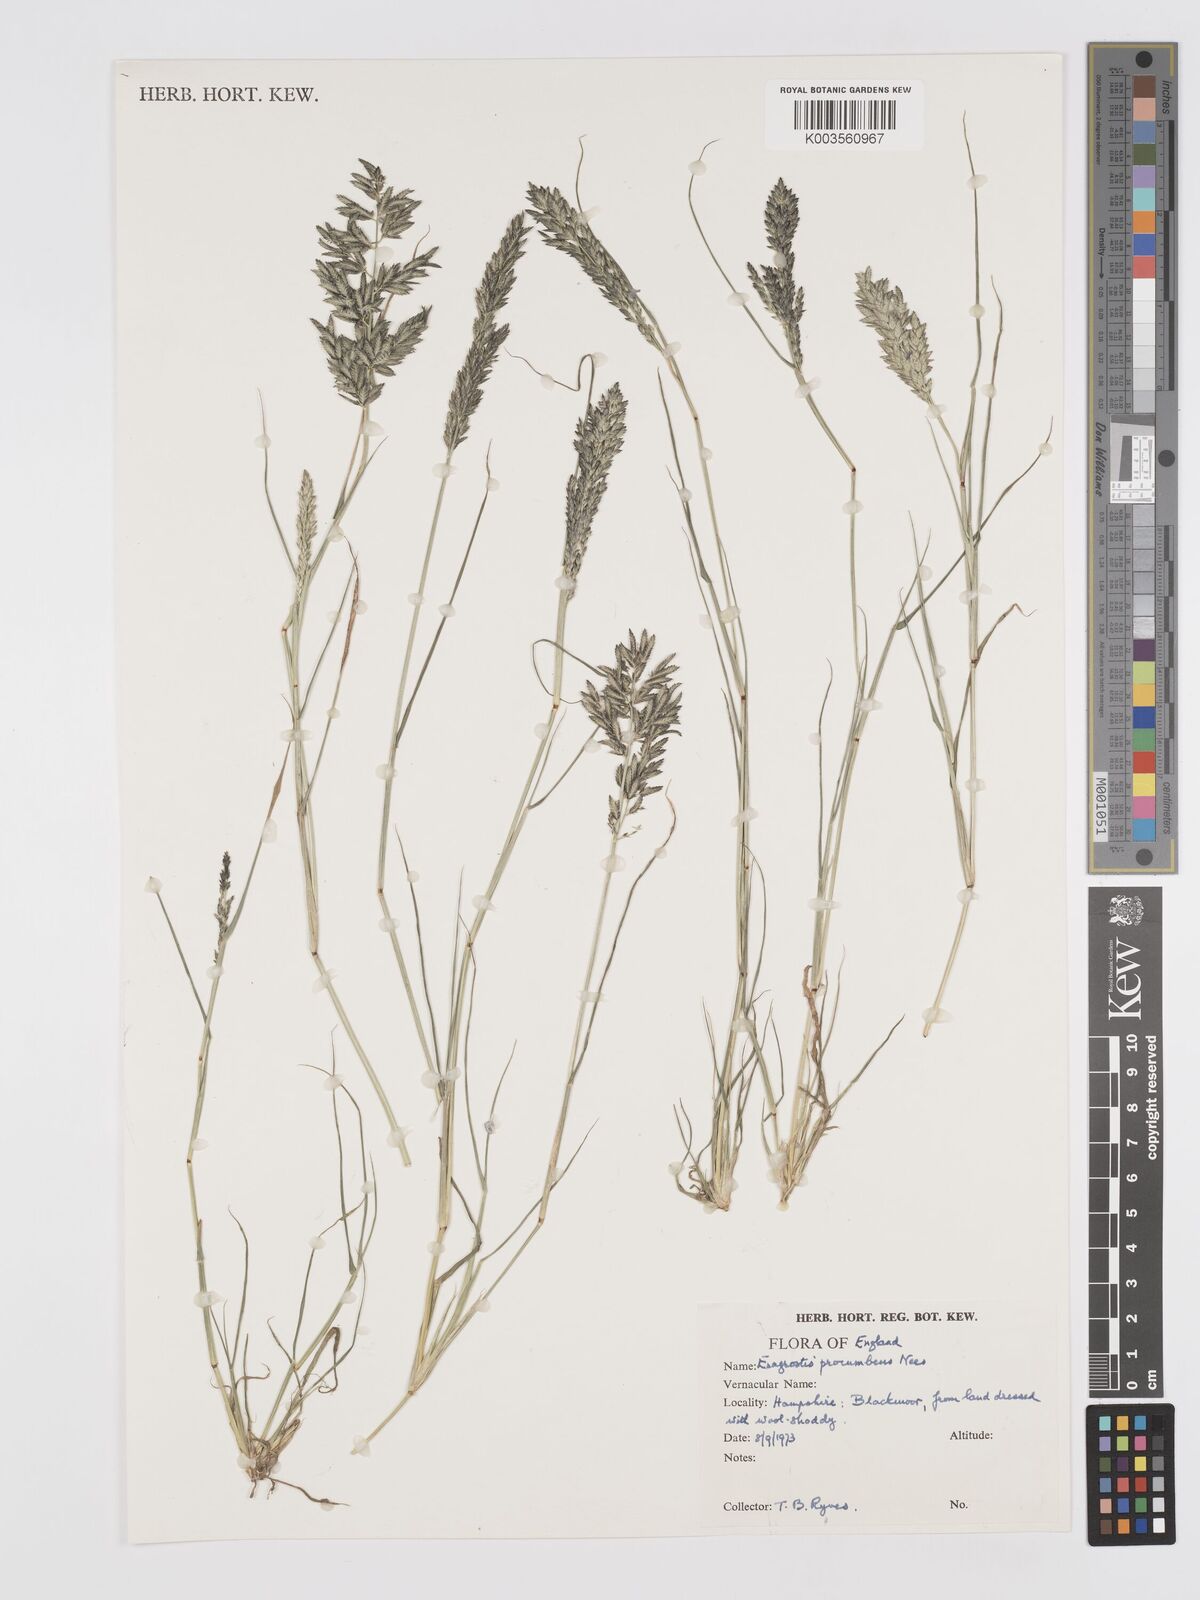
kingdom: Plantae
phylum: Tracheophyta
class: Liliopsida
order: Poales
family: Poaceae
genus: Eragrostis
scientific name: Eragrostis procumbens
